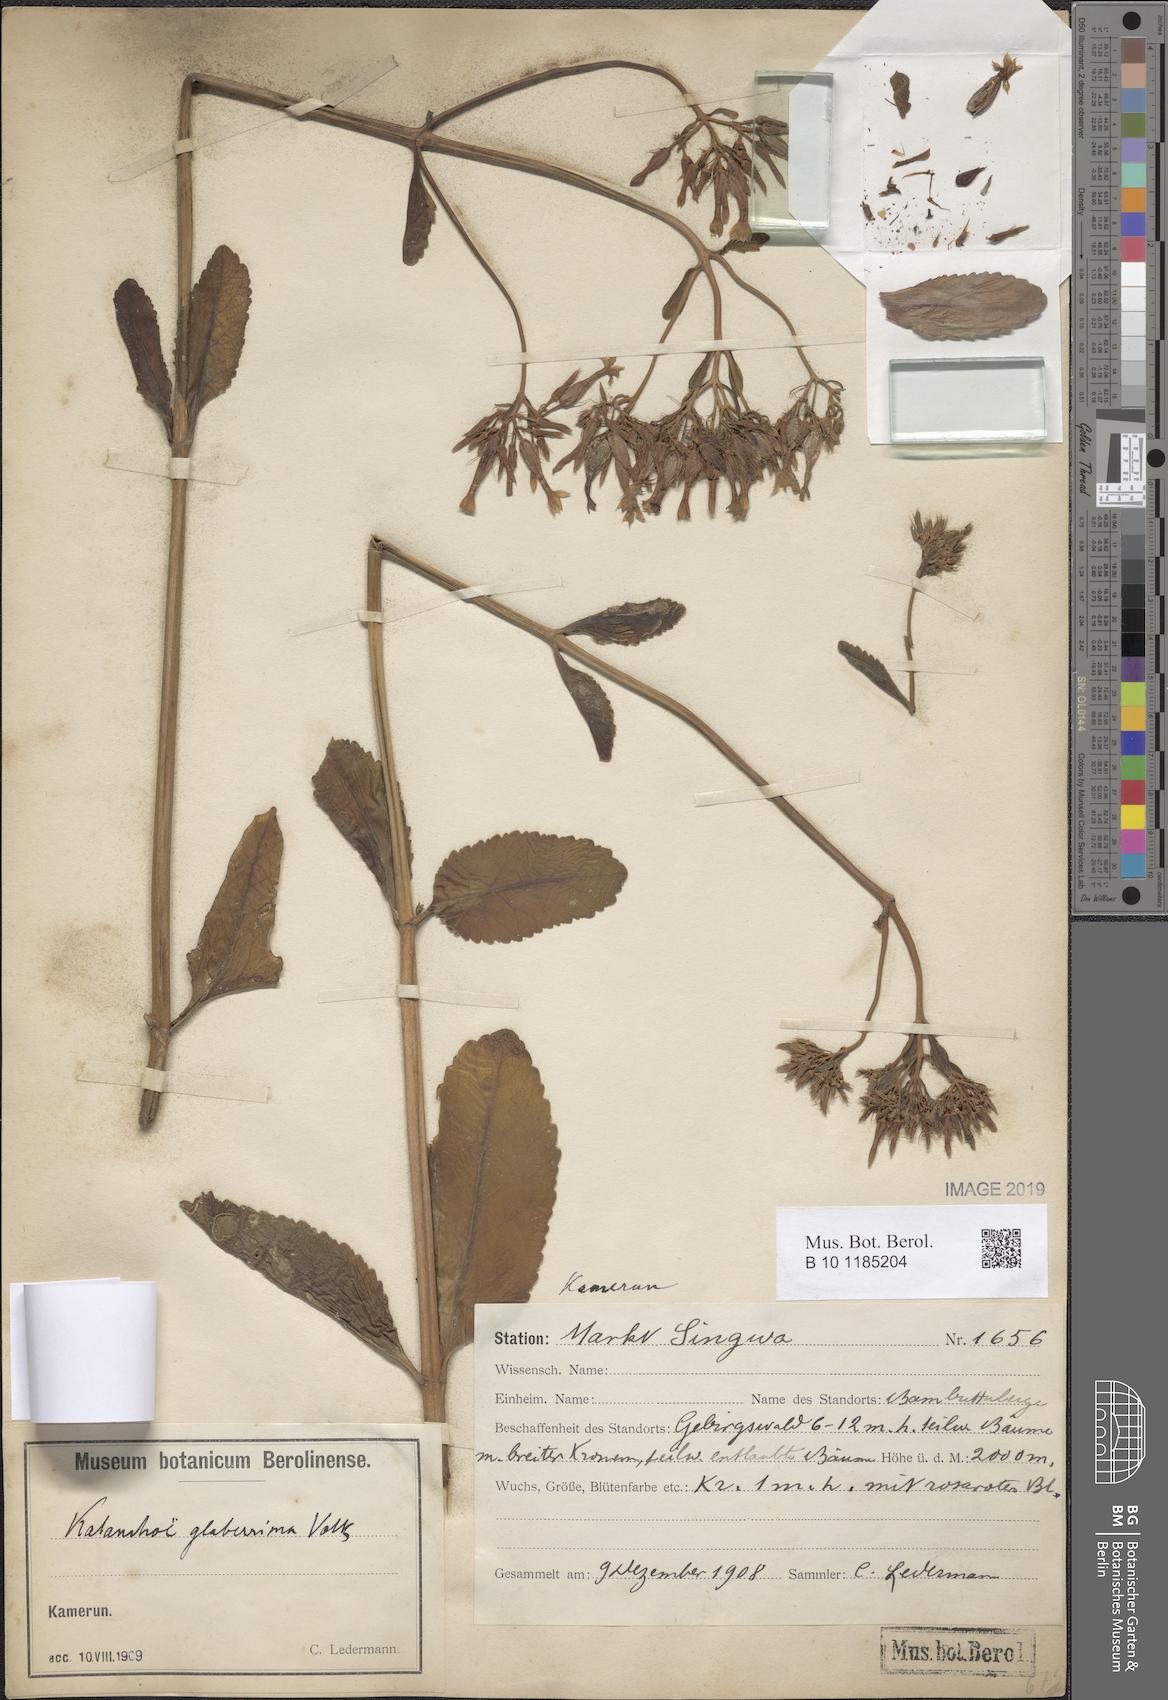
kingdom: Plantae
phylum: Tracheophyta
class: Magnoliopsida
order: Saxifragales
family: Crassulaceae
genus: Kalanchoe
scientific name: Kalanchoe densiflora
